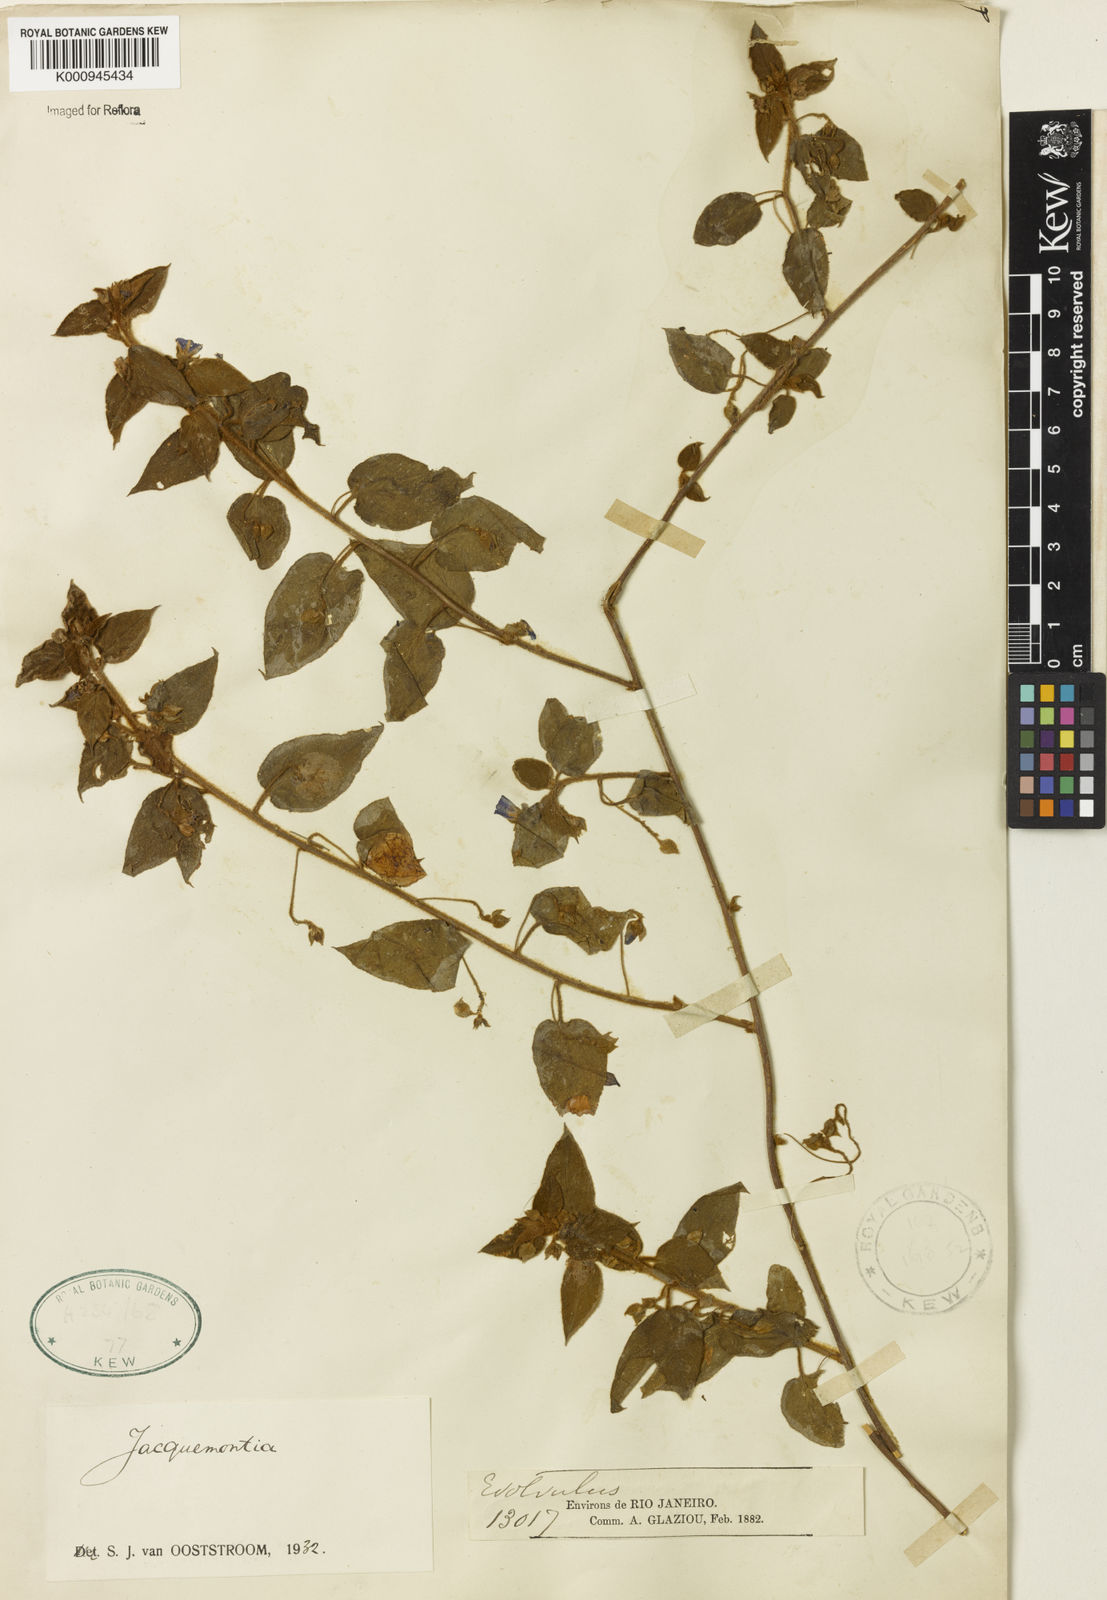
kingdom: Plantae
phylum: Tracheophyta
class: Magnoliopsida
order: Solanales
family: Convolvulaceae
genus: Jacquemontia
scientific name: Jacquemontia
